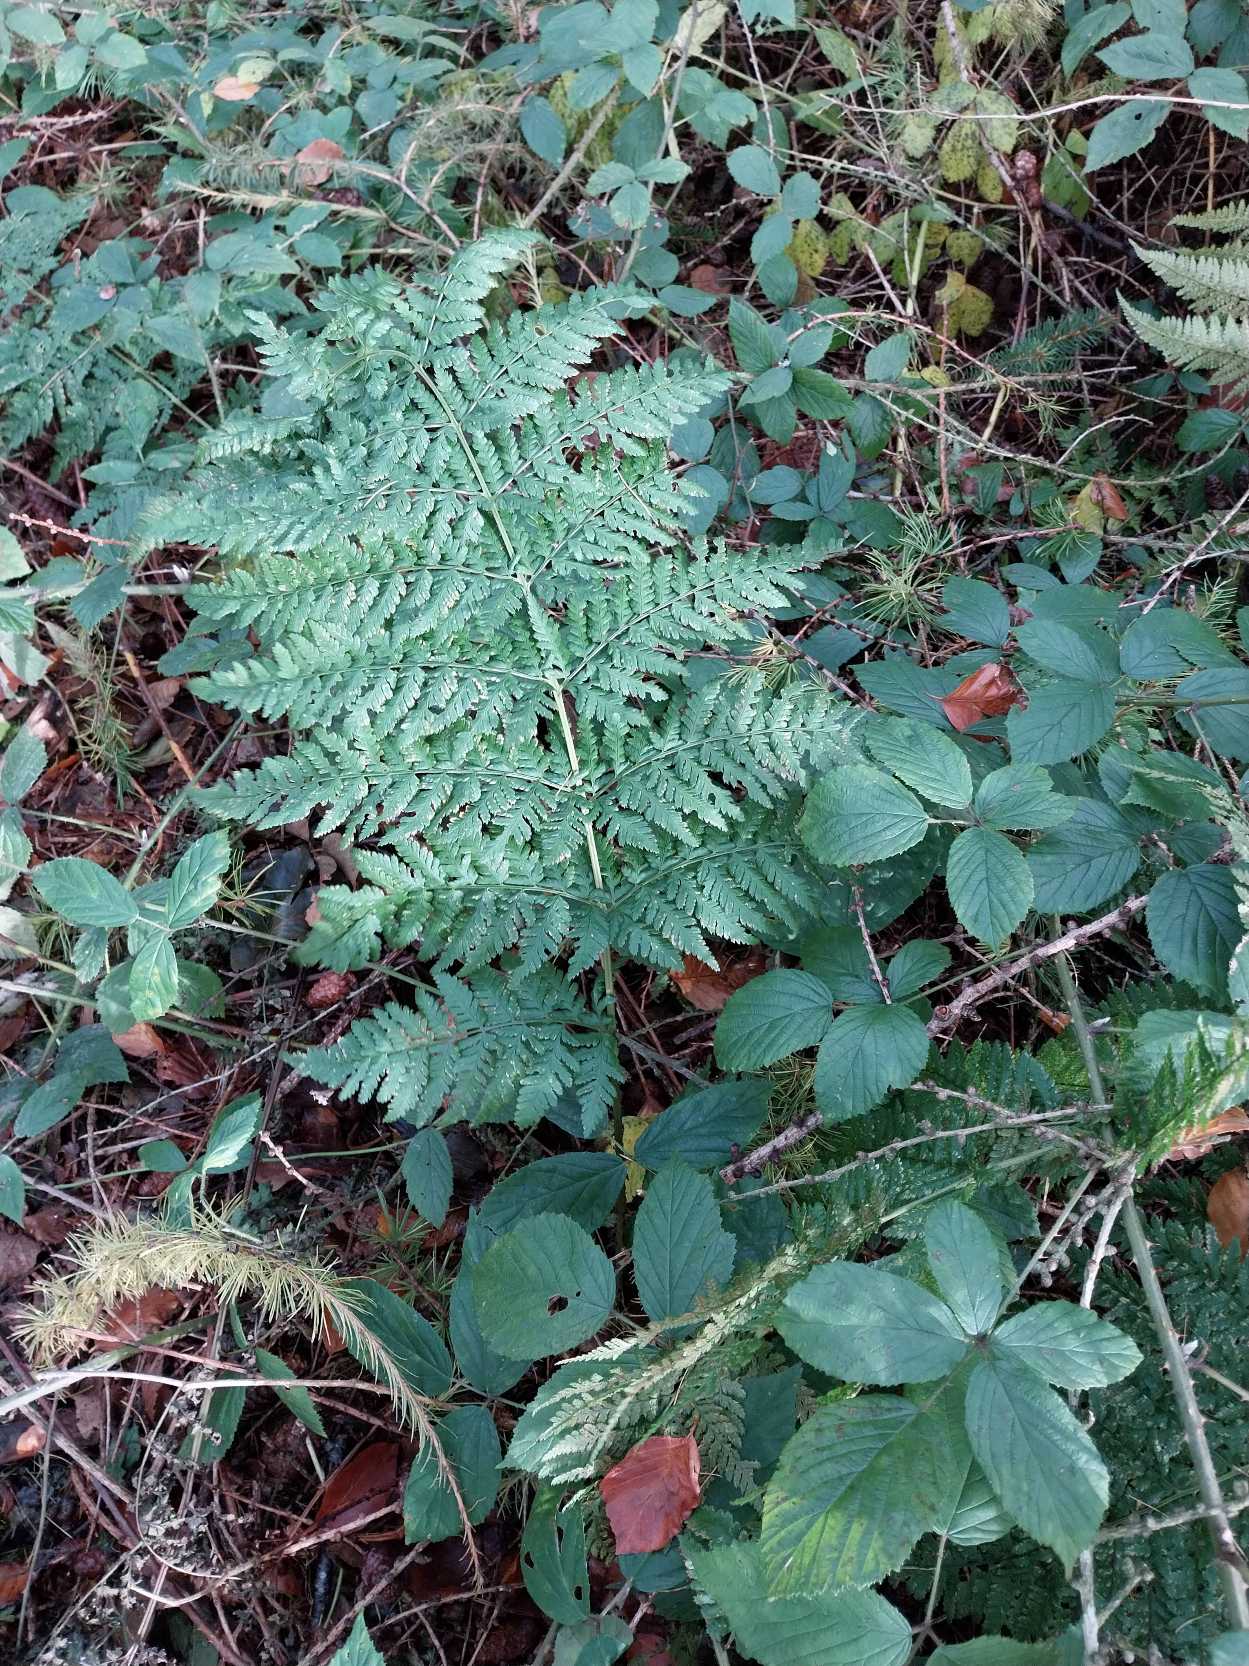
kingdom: Plantae
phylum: Tracheophyta
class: Polypodiopsida
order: Polypodiales
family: Dryopteridaceae
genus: Dryopteris
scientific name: Dryopteris dilatata
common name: Bredbladet mangeløv
